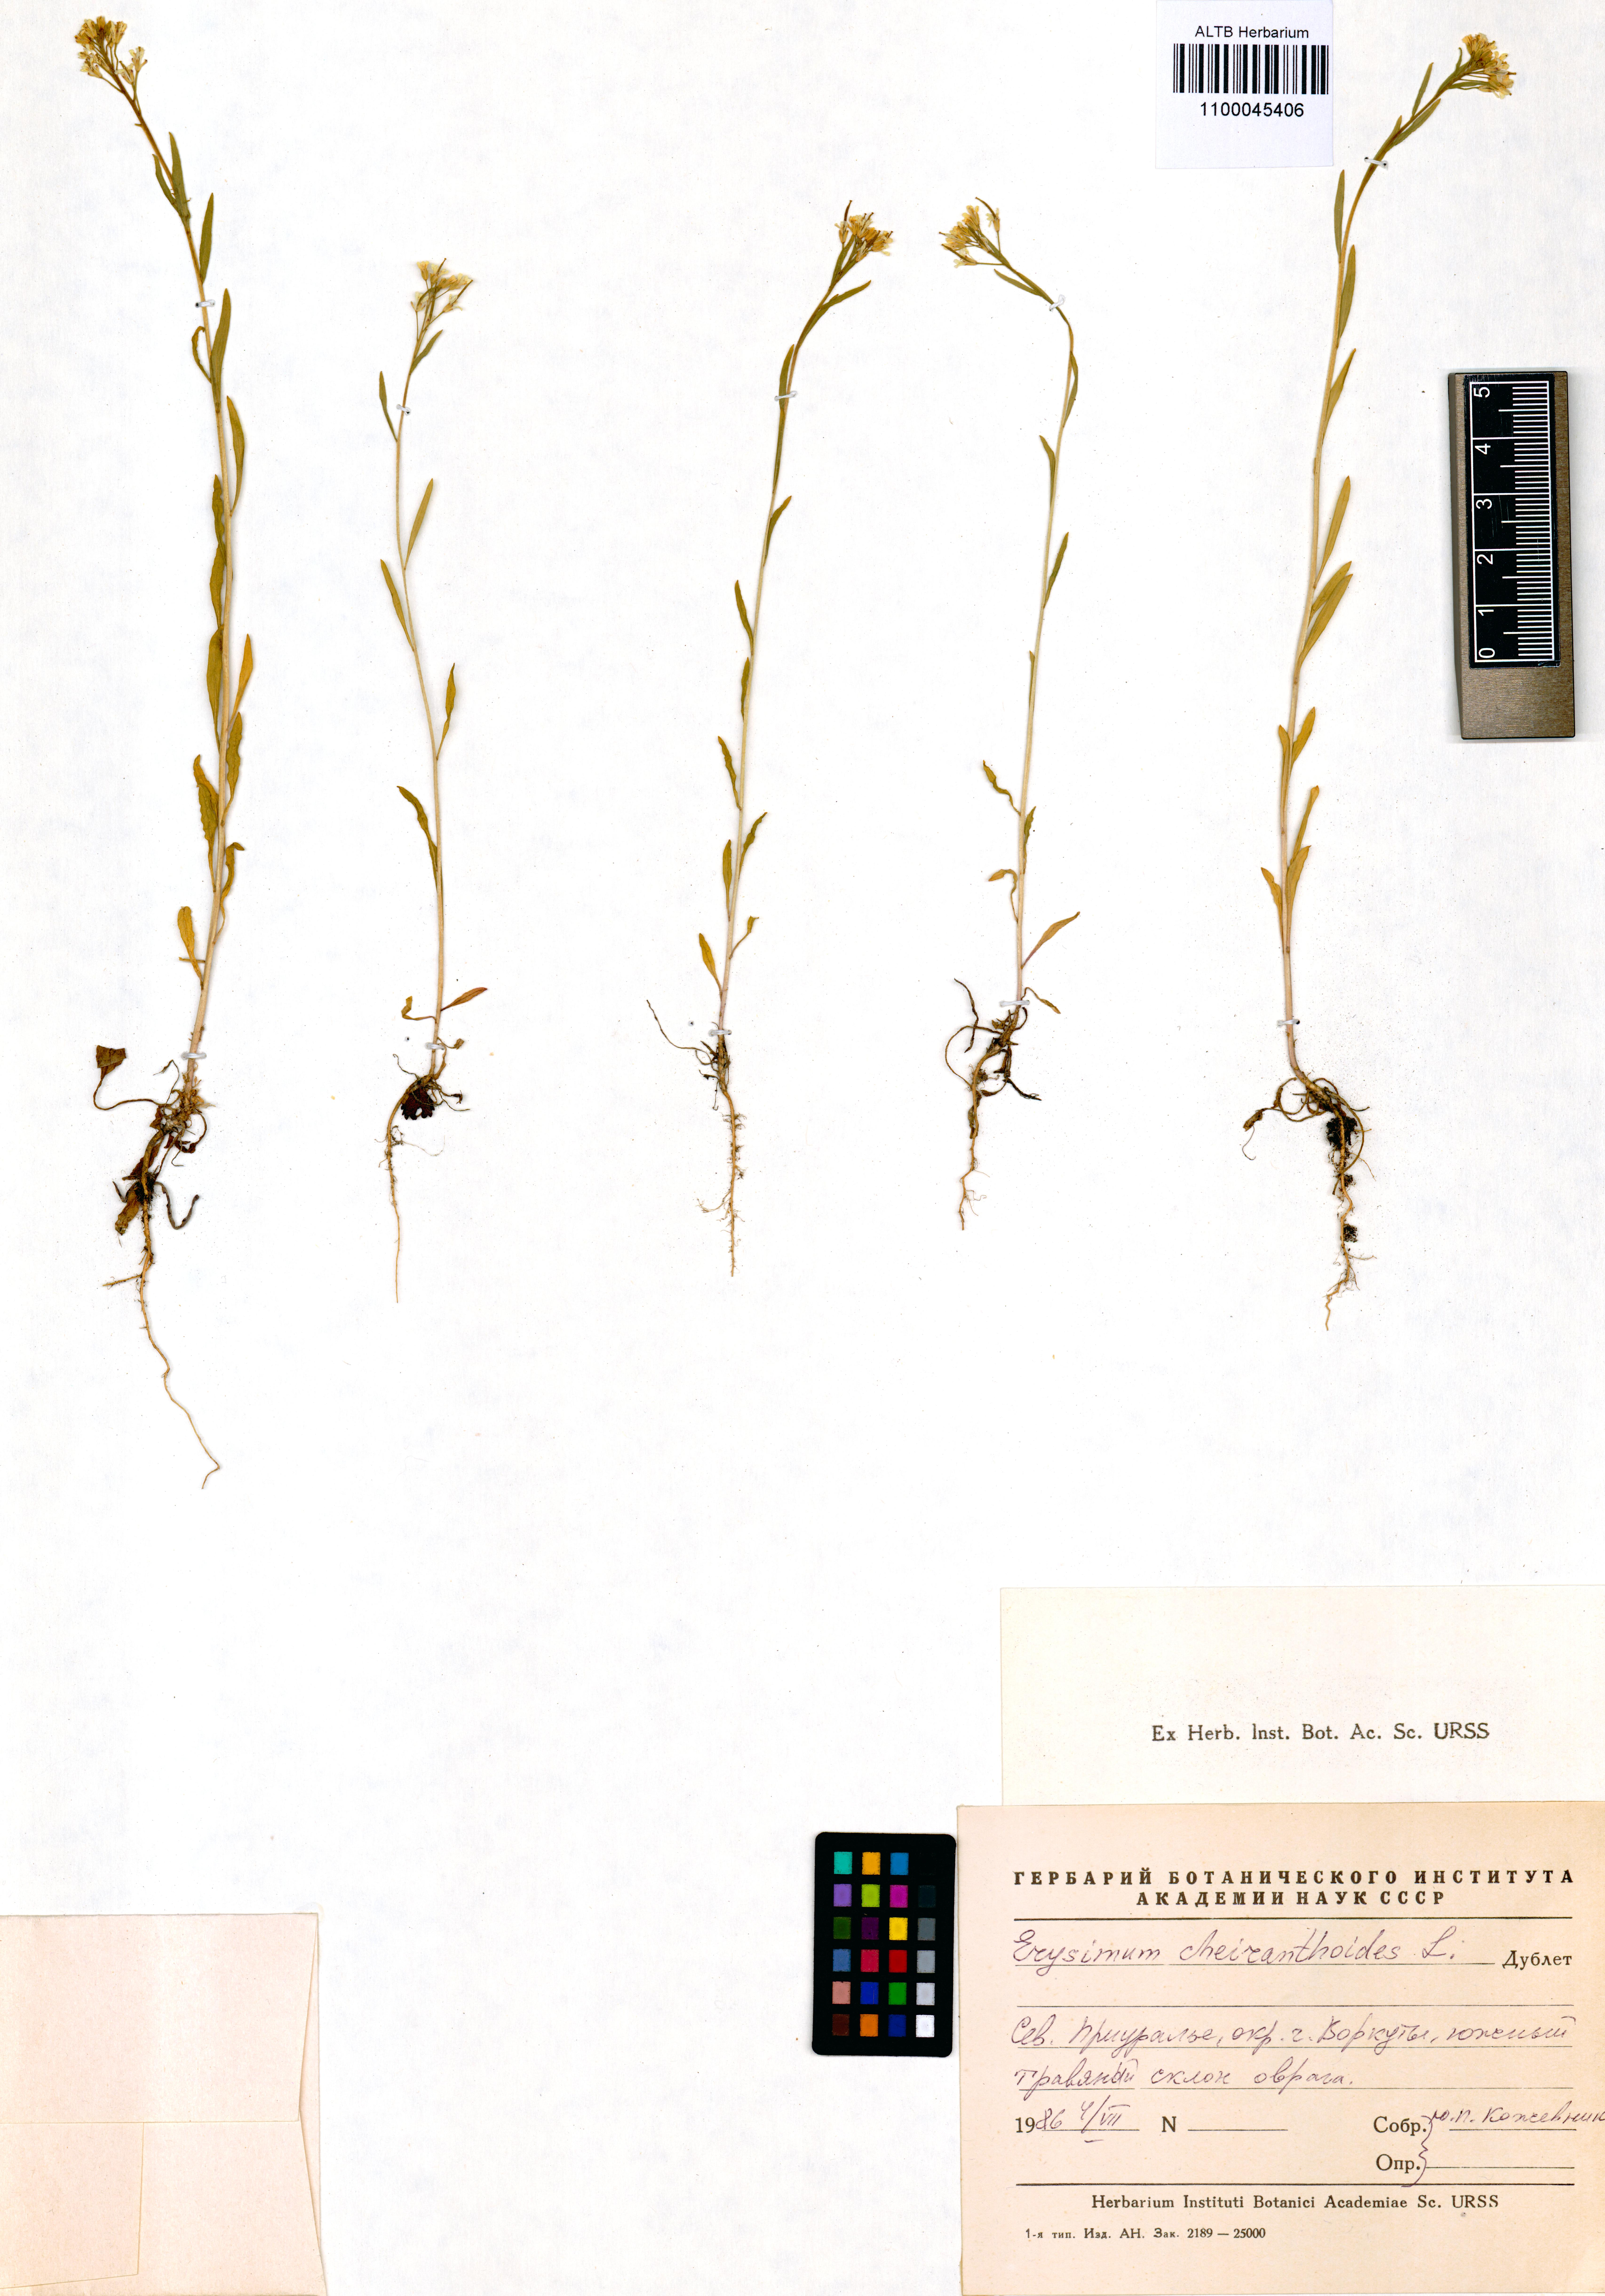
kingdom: Plantae
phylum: Tracheophyta
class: Magnoliopsida
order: Brassicales
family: Brassicaceae
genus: Erysimum
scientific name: Erysimum cheiranthoides
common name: Treacle mustard
